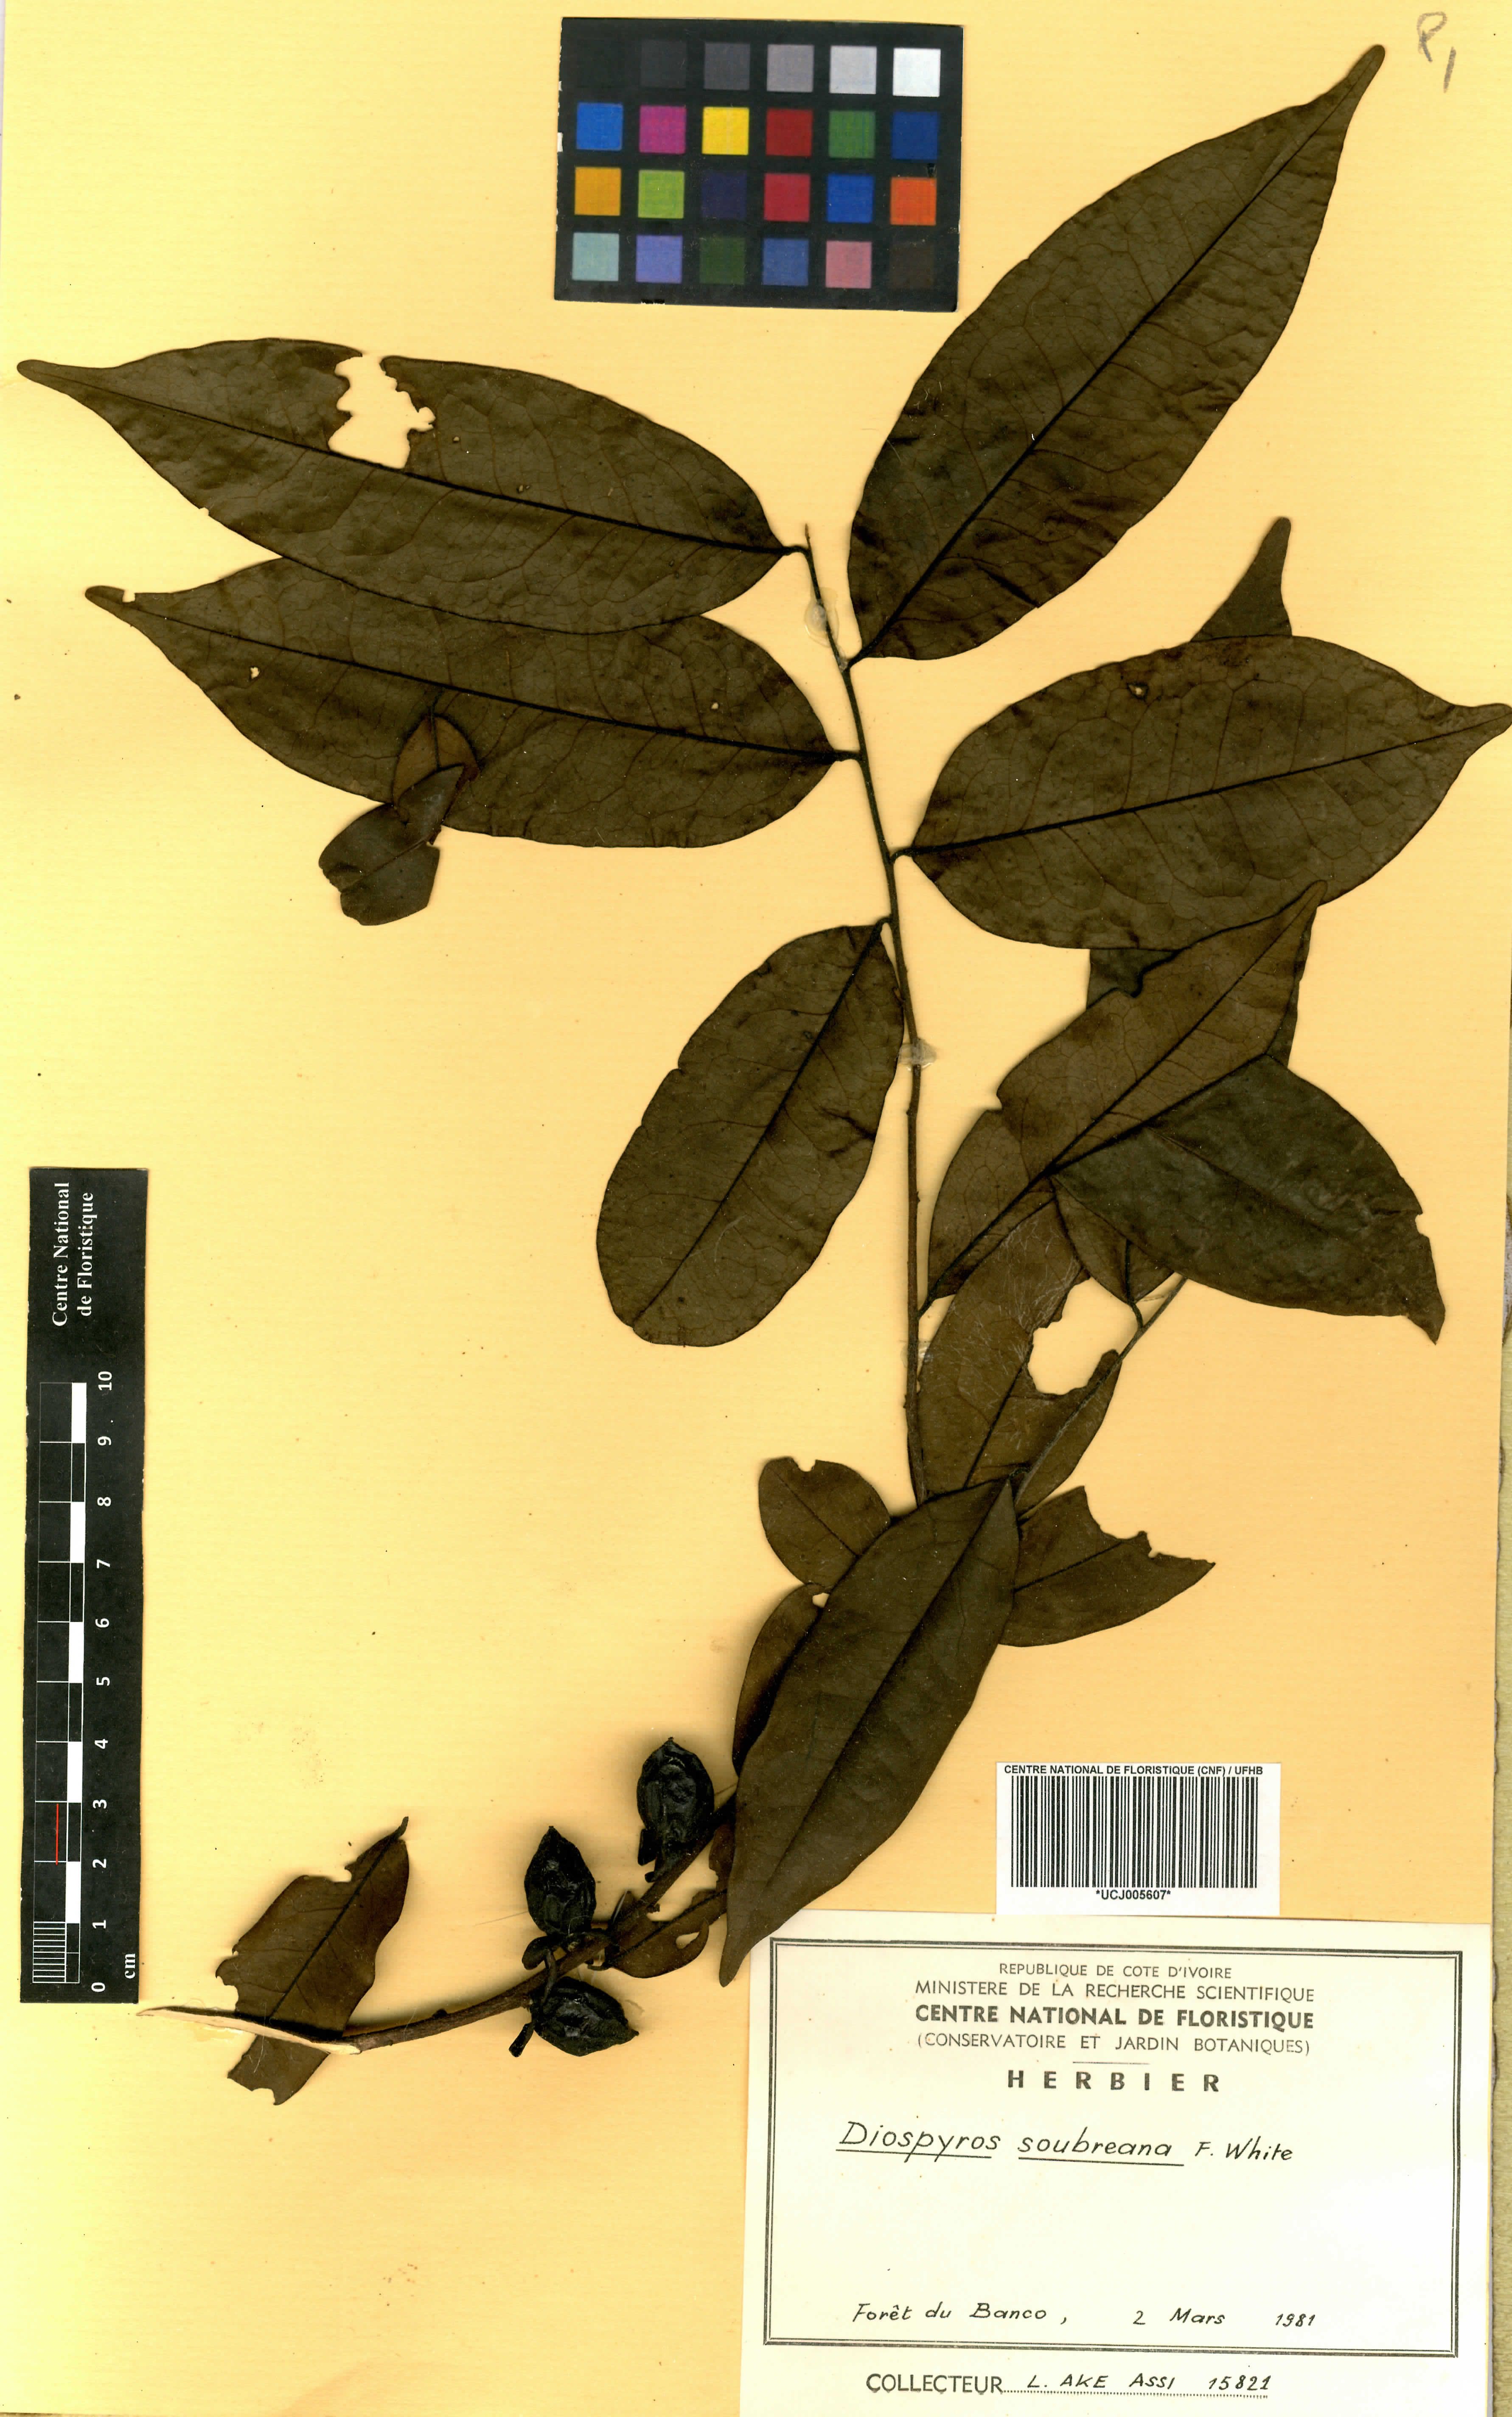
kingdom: Plantae
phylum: Tracheophyta
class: Magnoliopsida
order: Ericales
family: Ebenaceae
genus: Diospyros
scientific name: Diospyros soubreana
